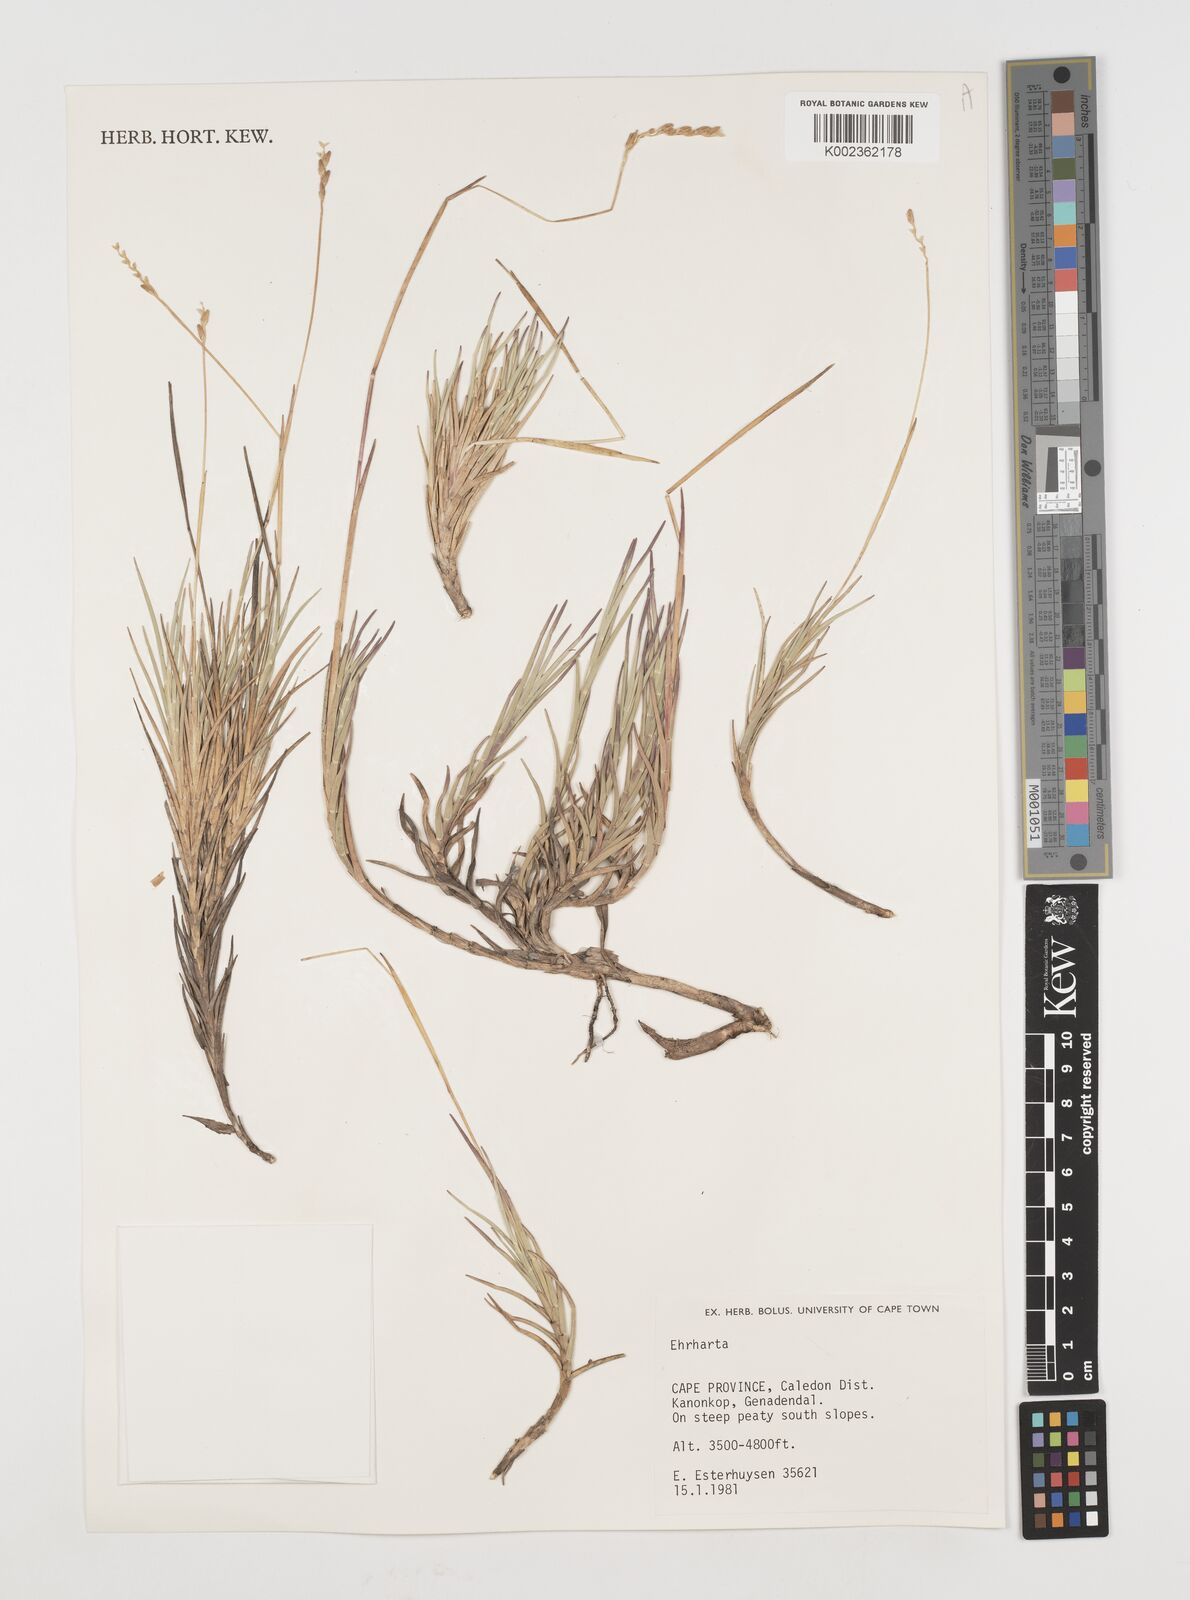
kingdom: Plantae
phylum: Tracheophyta
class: Liliopsida
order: Poales
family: Poaceae
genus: Ehrharta
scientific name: Ehrharta
